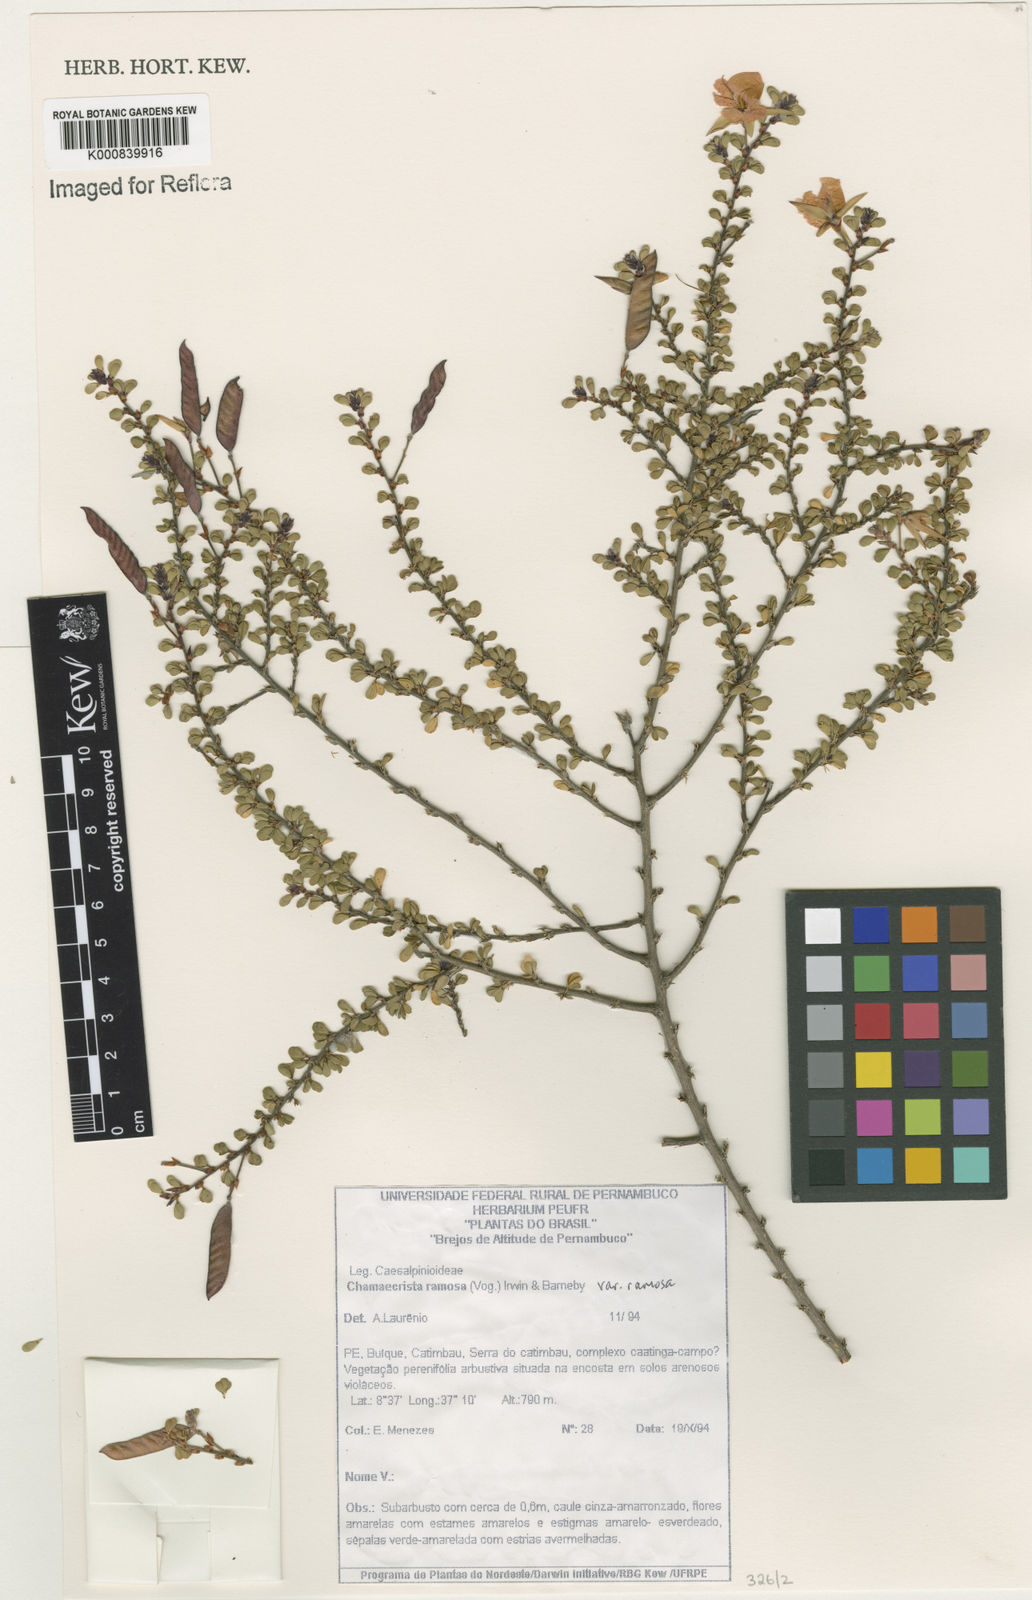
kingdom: Plantae
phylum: Tracheophyta
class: Magnoliopsida
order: Fabales
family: Fabaceae
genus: Chamaecrista
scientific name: Chamaecrista ramosa
